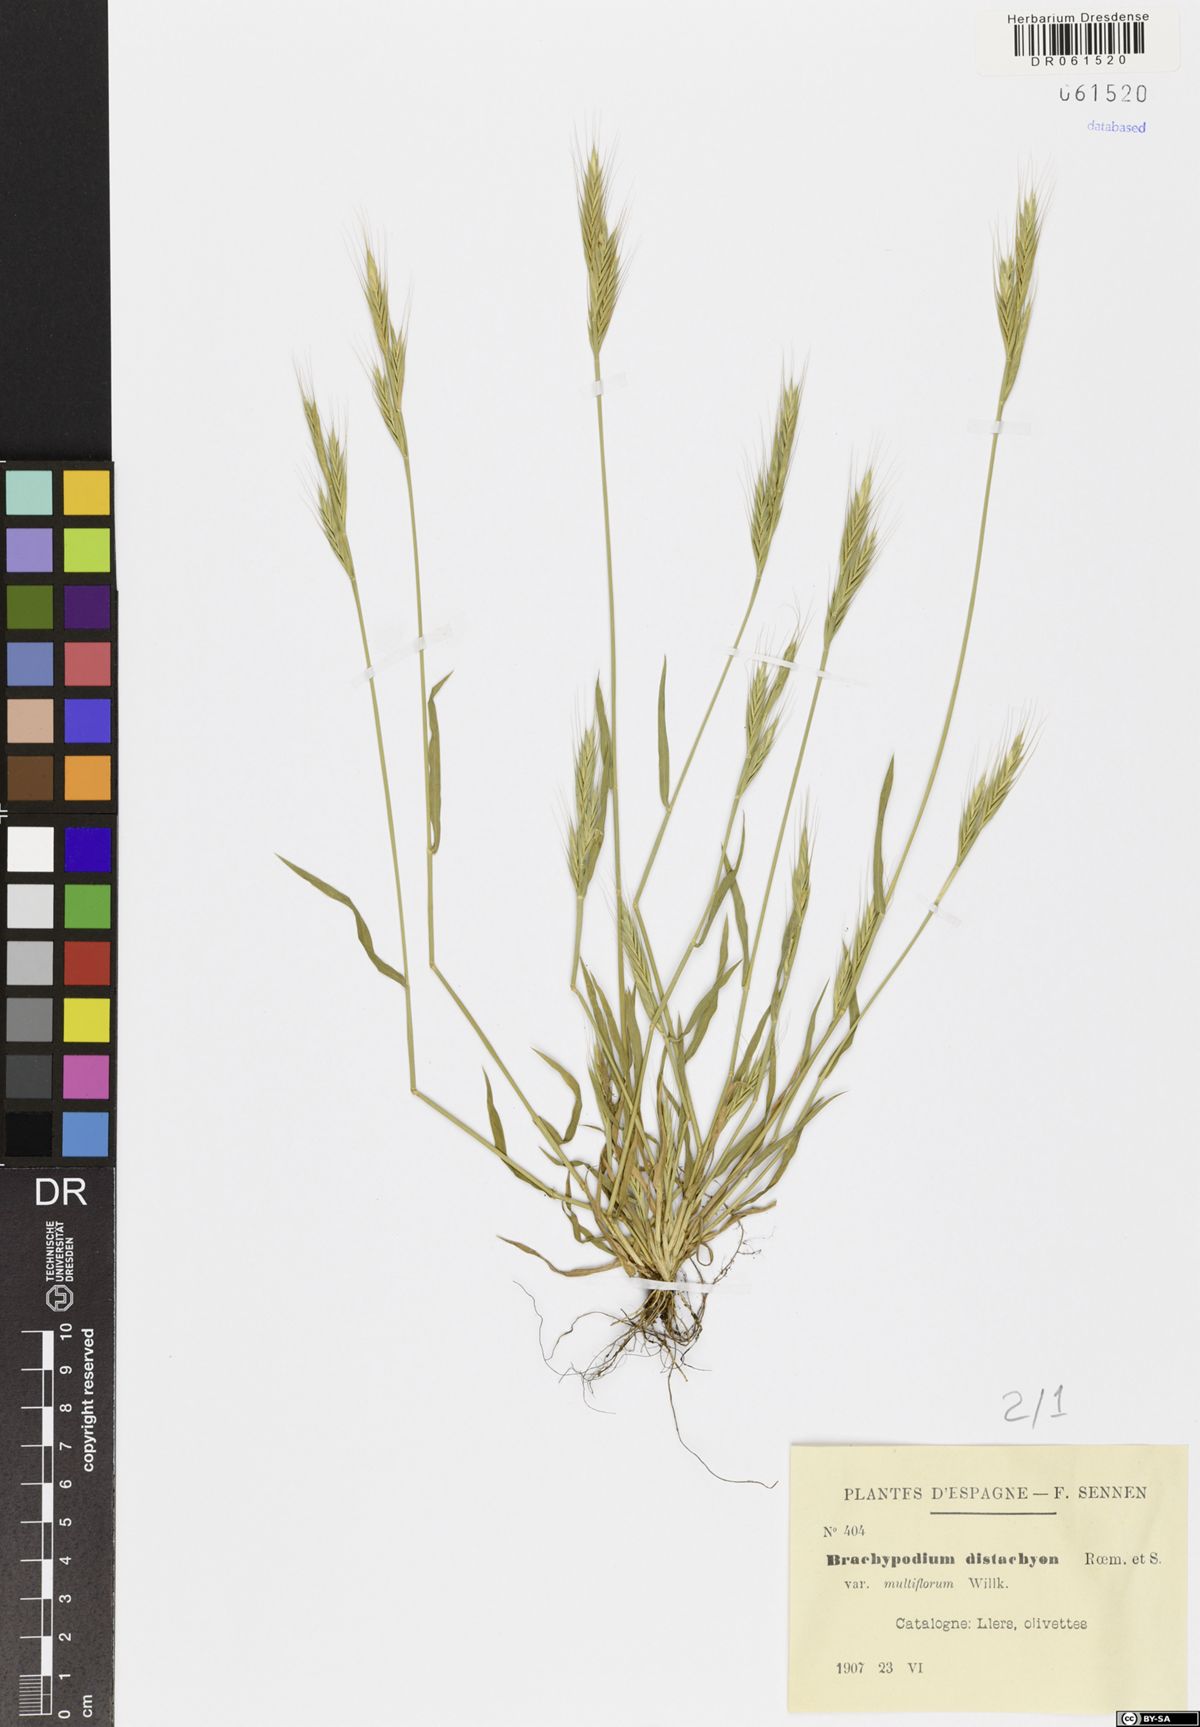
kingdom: Plantae
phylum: Tracheophyta
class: Liliopsida
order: Poales
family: Poaceae
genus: Brachypodium
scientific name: Brachypodium distachyon
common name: Stiff brome
